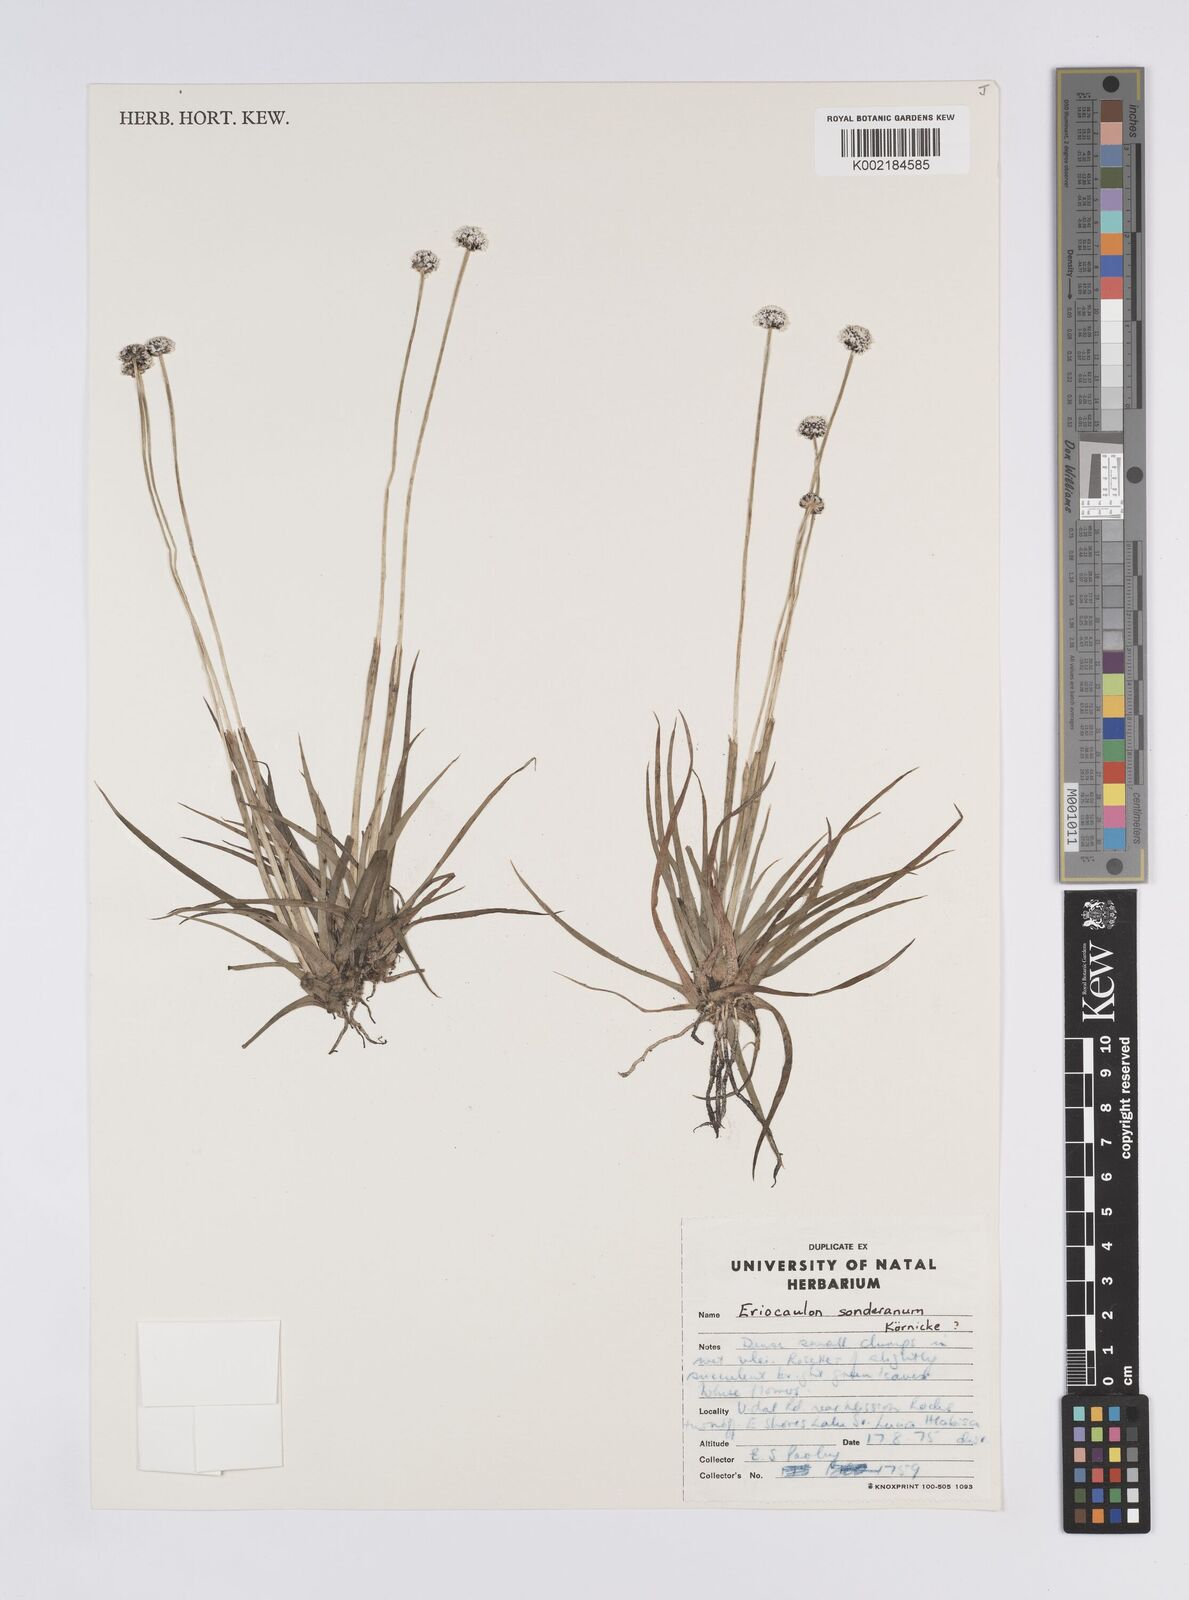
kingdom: Plantae
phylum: Tracheophyta
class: Liliopsida
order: Poales
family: Eriocaulaceae
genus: Eriocaulon
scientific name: Eriocaulon sonderianum
